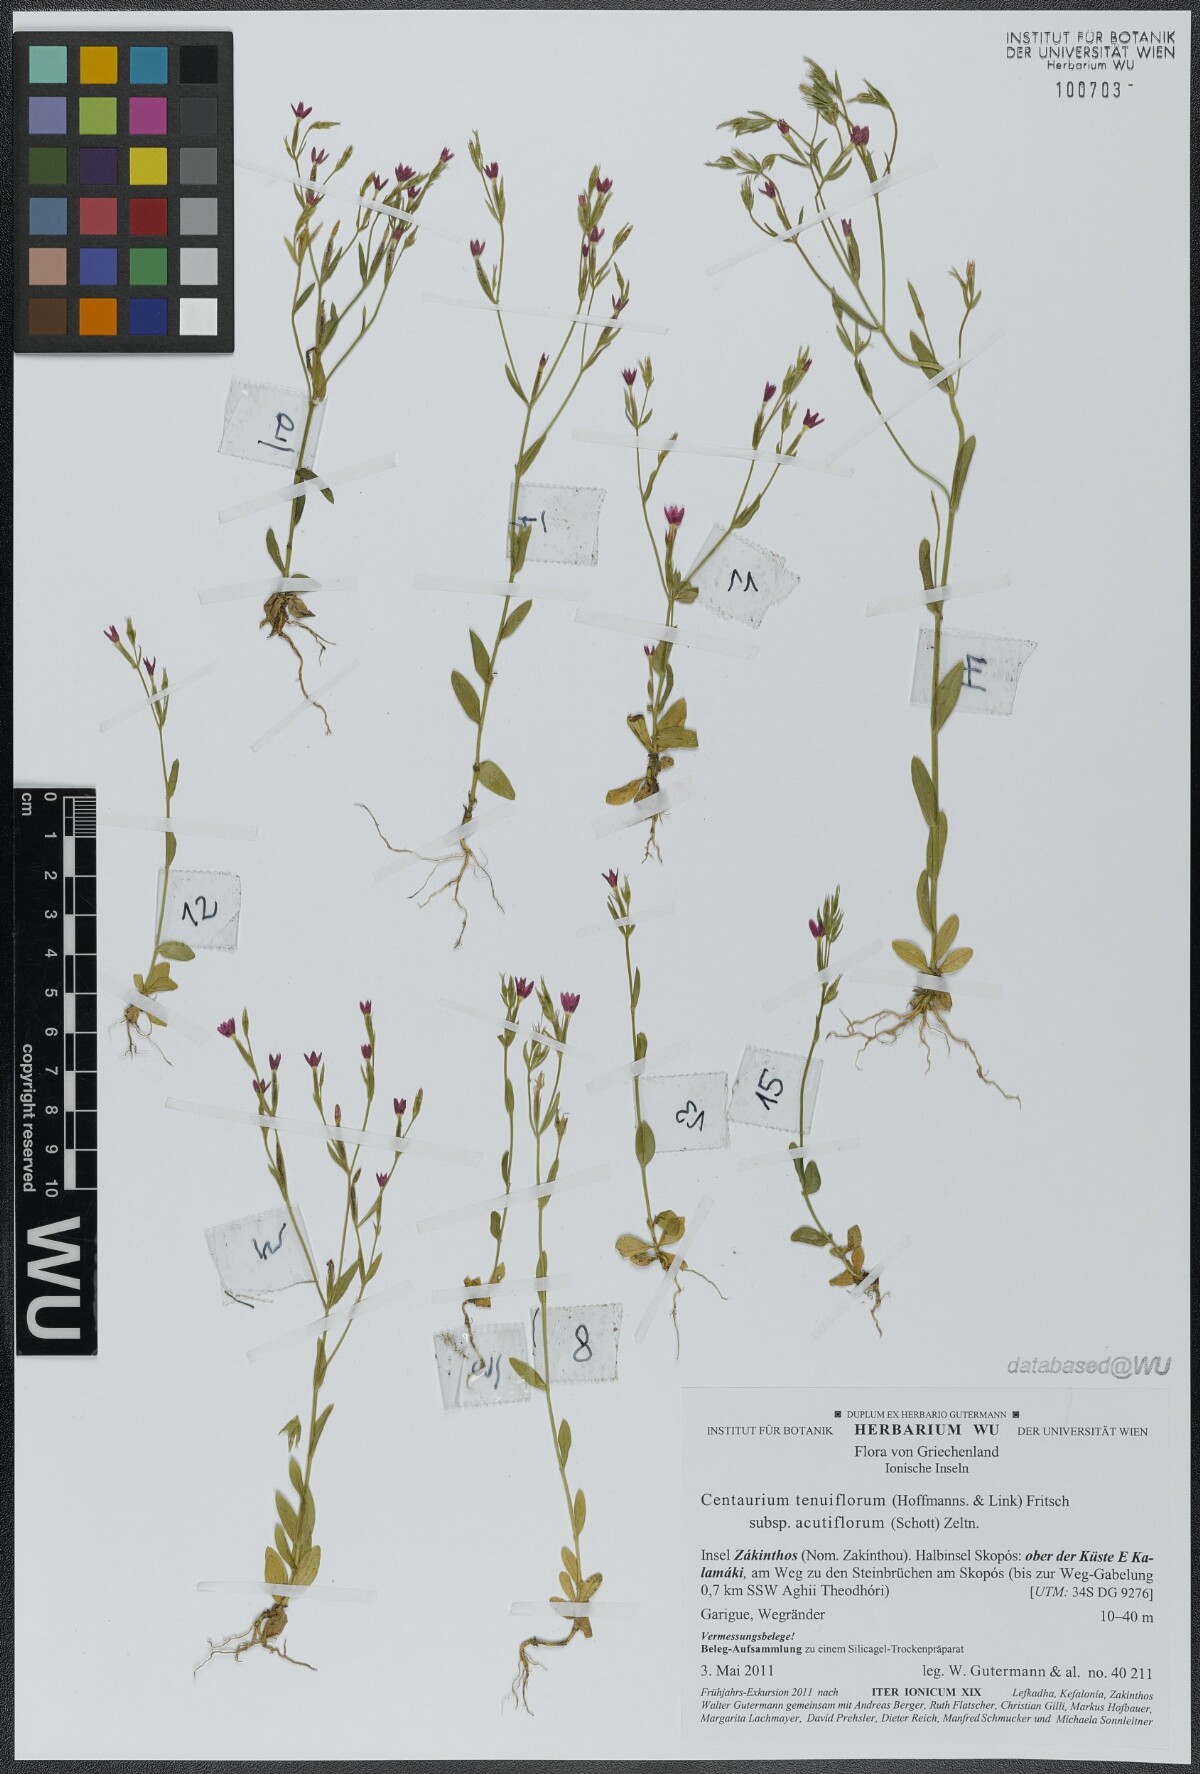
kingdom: Plantae
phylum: Tracheophyta
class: Magnoliopsida
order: Gentianales
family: Gentianaceae
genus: Centaurium
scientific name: Centaurium tenuiflorum
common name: Slender centaury
